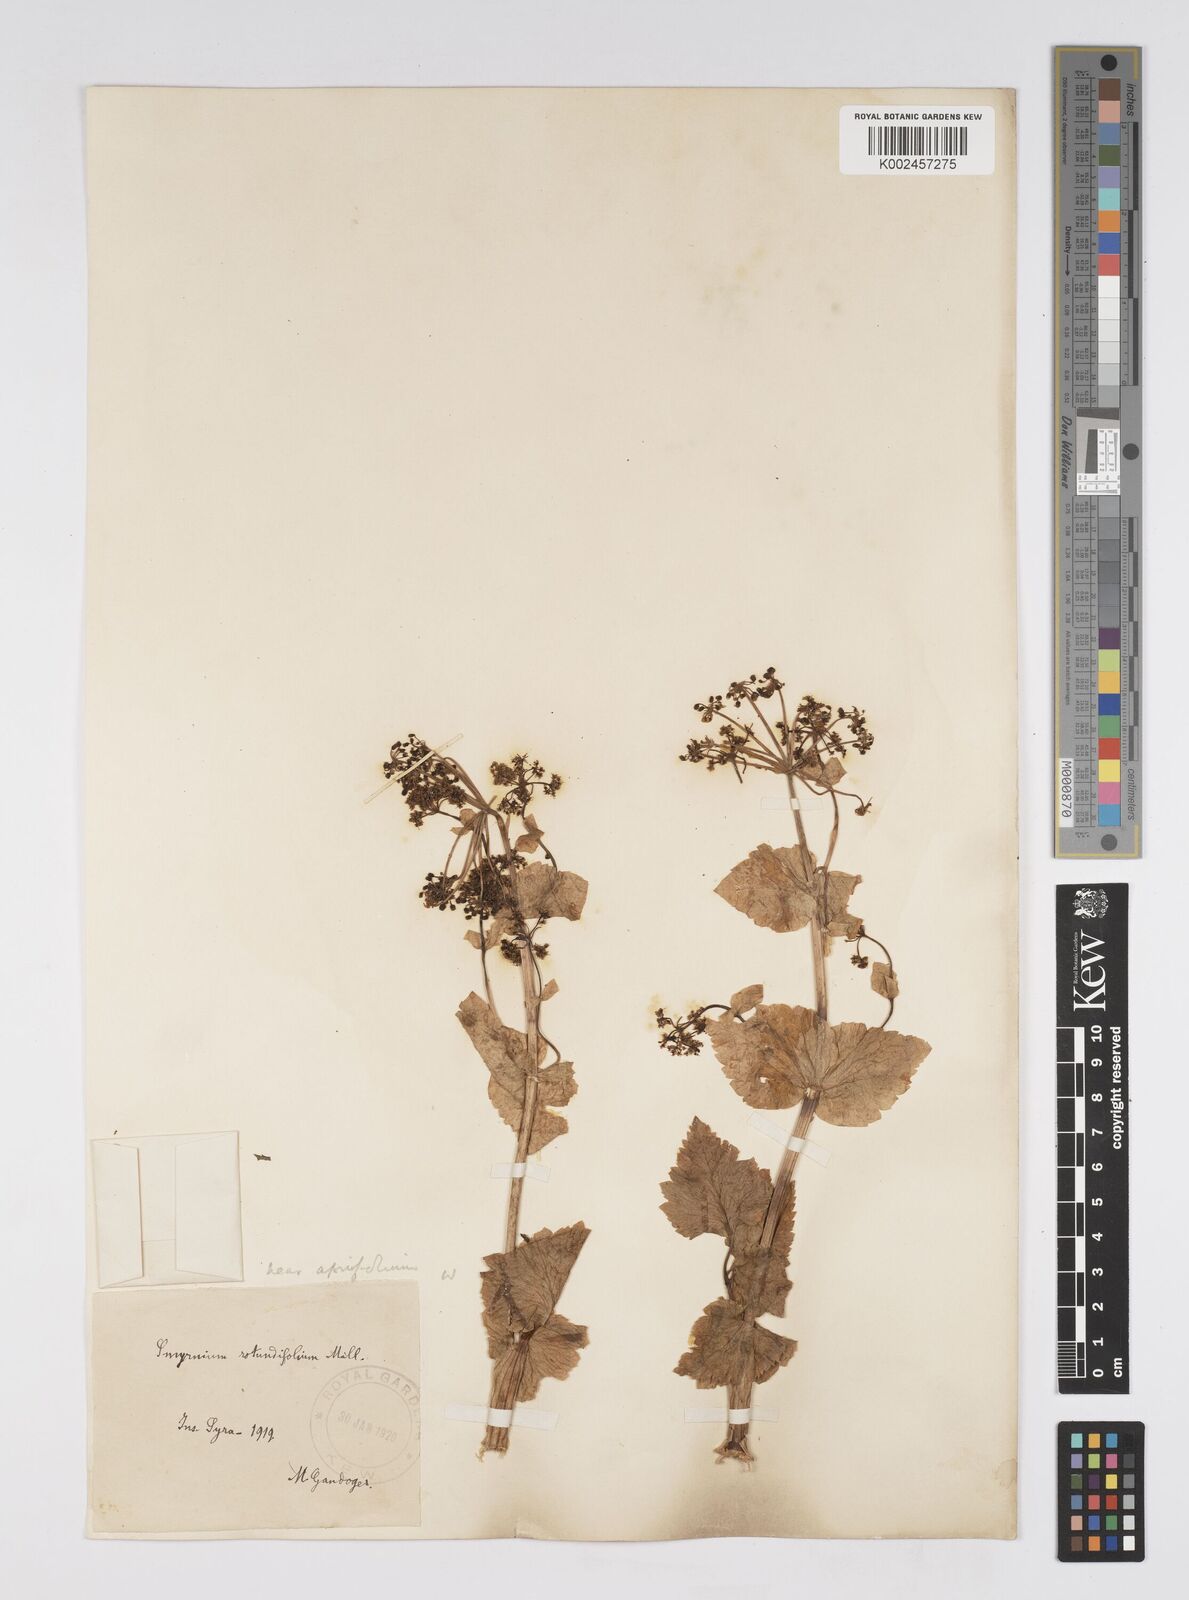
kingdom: Plantae
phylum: Tracheophyta
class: Magnoliopsida
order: Apiales
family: Apiaceae
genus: Smyrnium
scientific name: Smyrnium creticum
